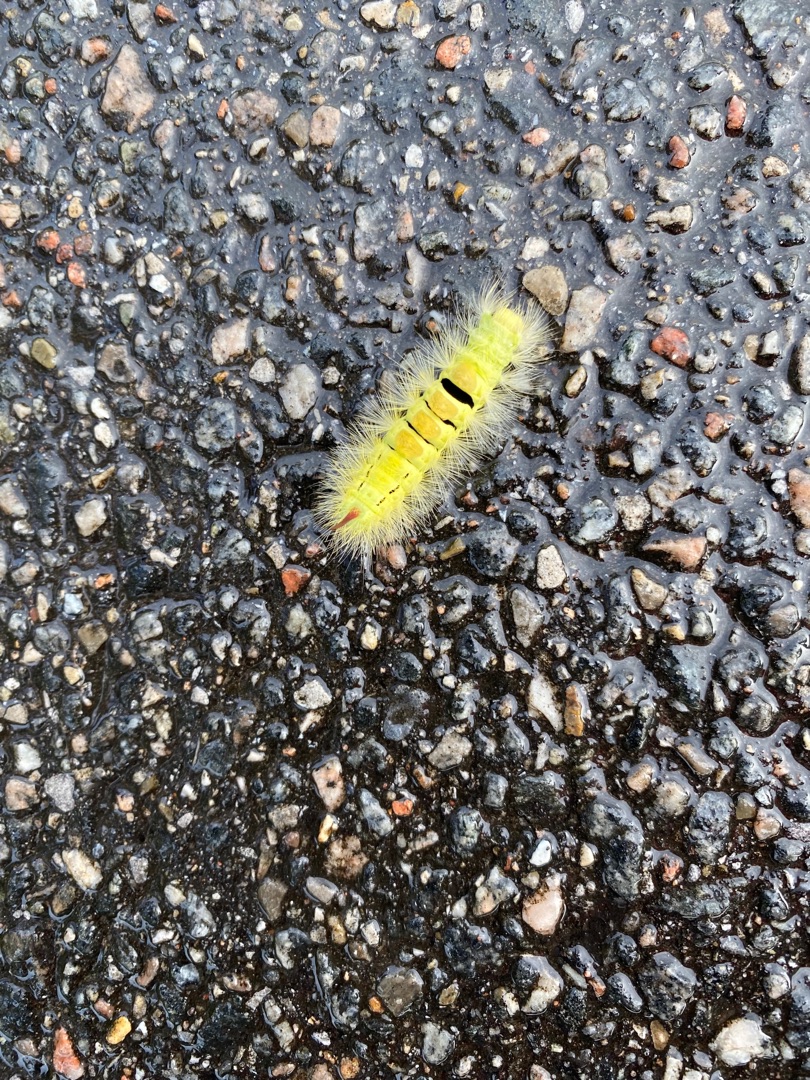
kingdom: Animalia
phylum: Arthropoda
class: Insecta
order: Lepidoptera
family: Erebidae
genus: Calliteara
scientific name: Calliteara pudibunda
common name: Bøgenonne
